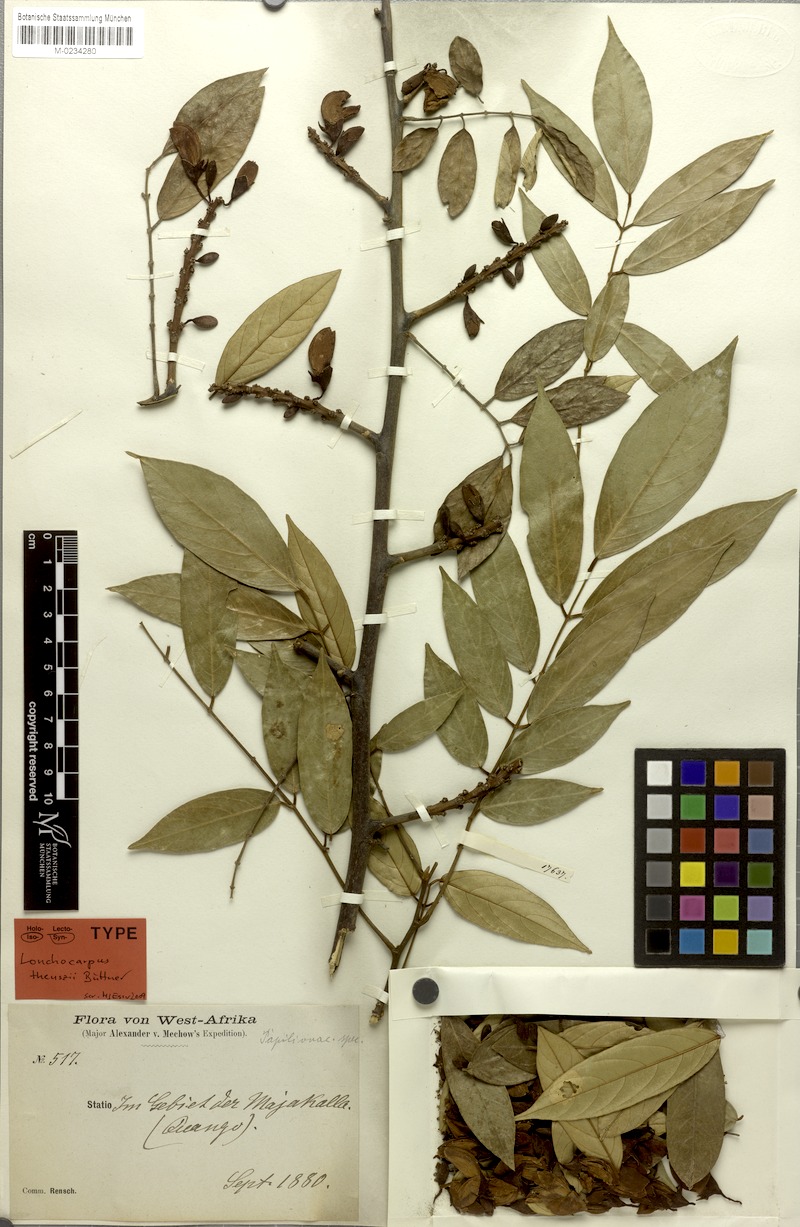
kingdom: Plantae
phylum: Tracheophyta
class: Magnoliopsida
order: Fabales
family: Fabaceae
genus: Millettia
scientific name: Millettia theuszii
